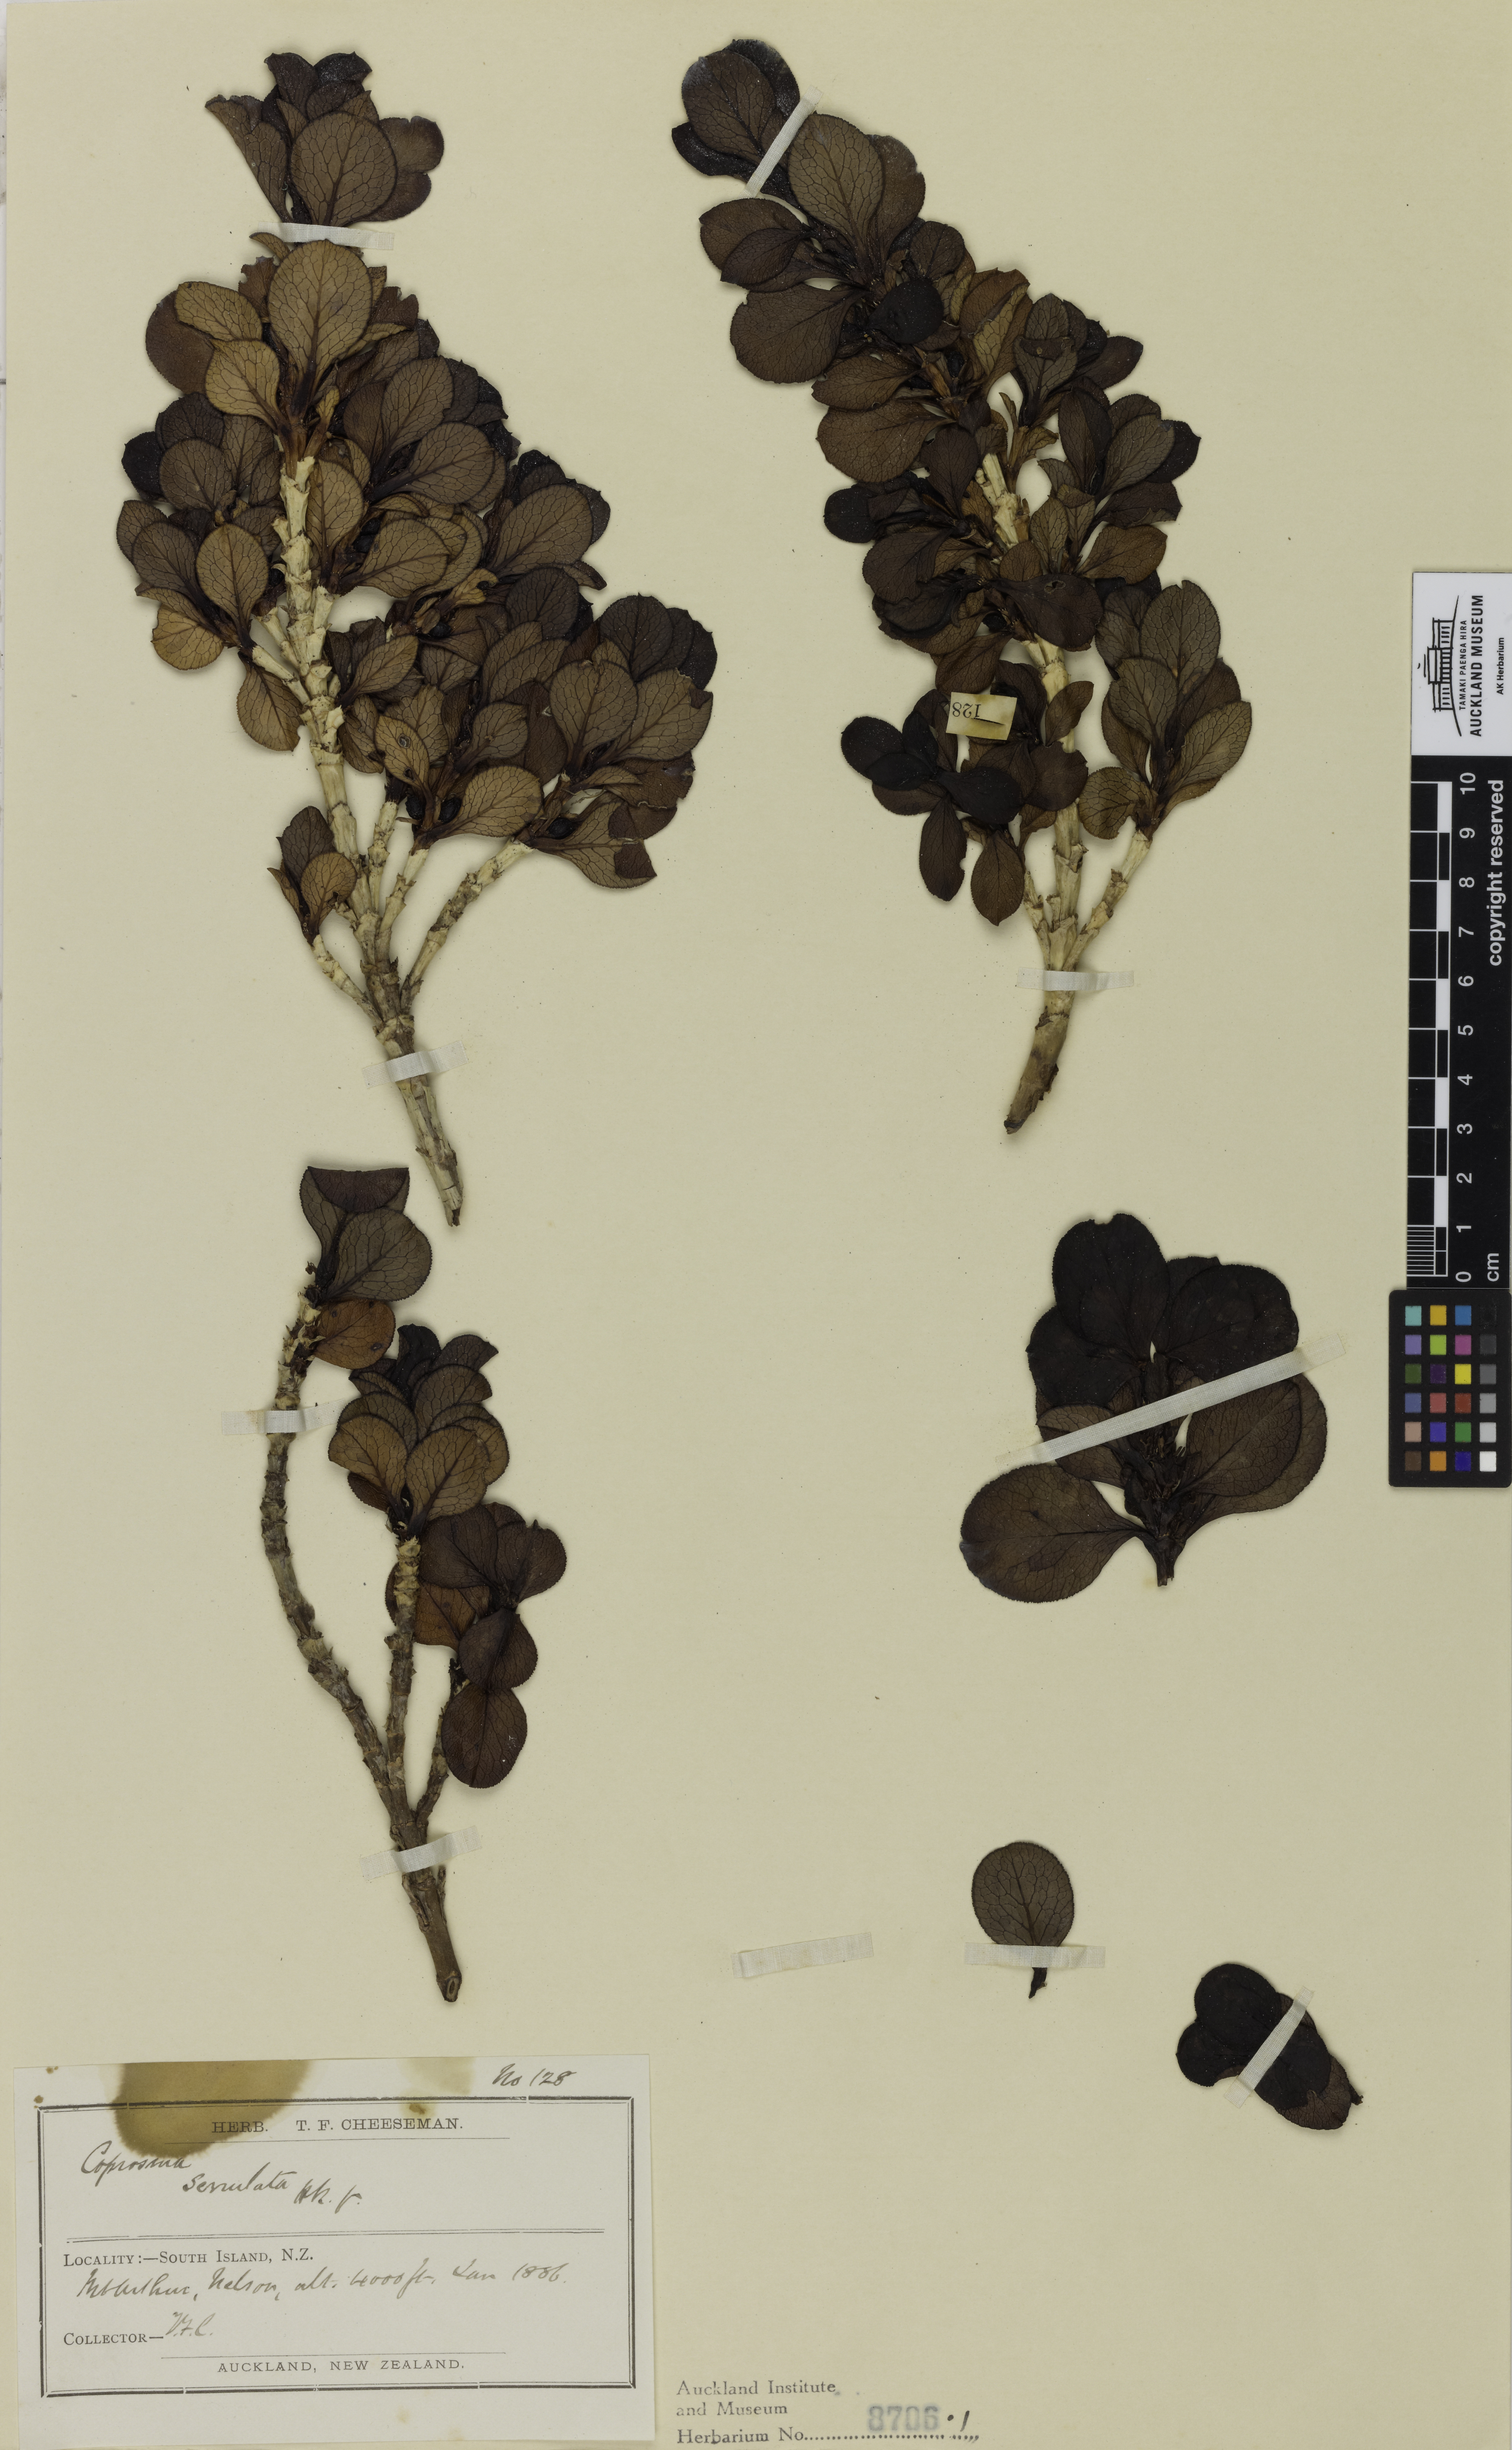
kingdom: Plantae
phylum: Tracheophyta
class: Magnoliopsida
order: Gentianales
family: Rubiaceae
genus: Coprosma
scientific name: Coprosma serrulata
